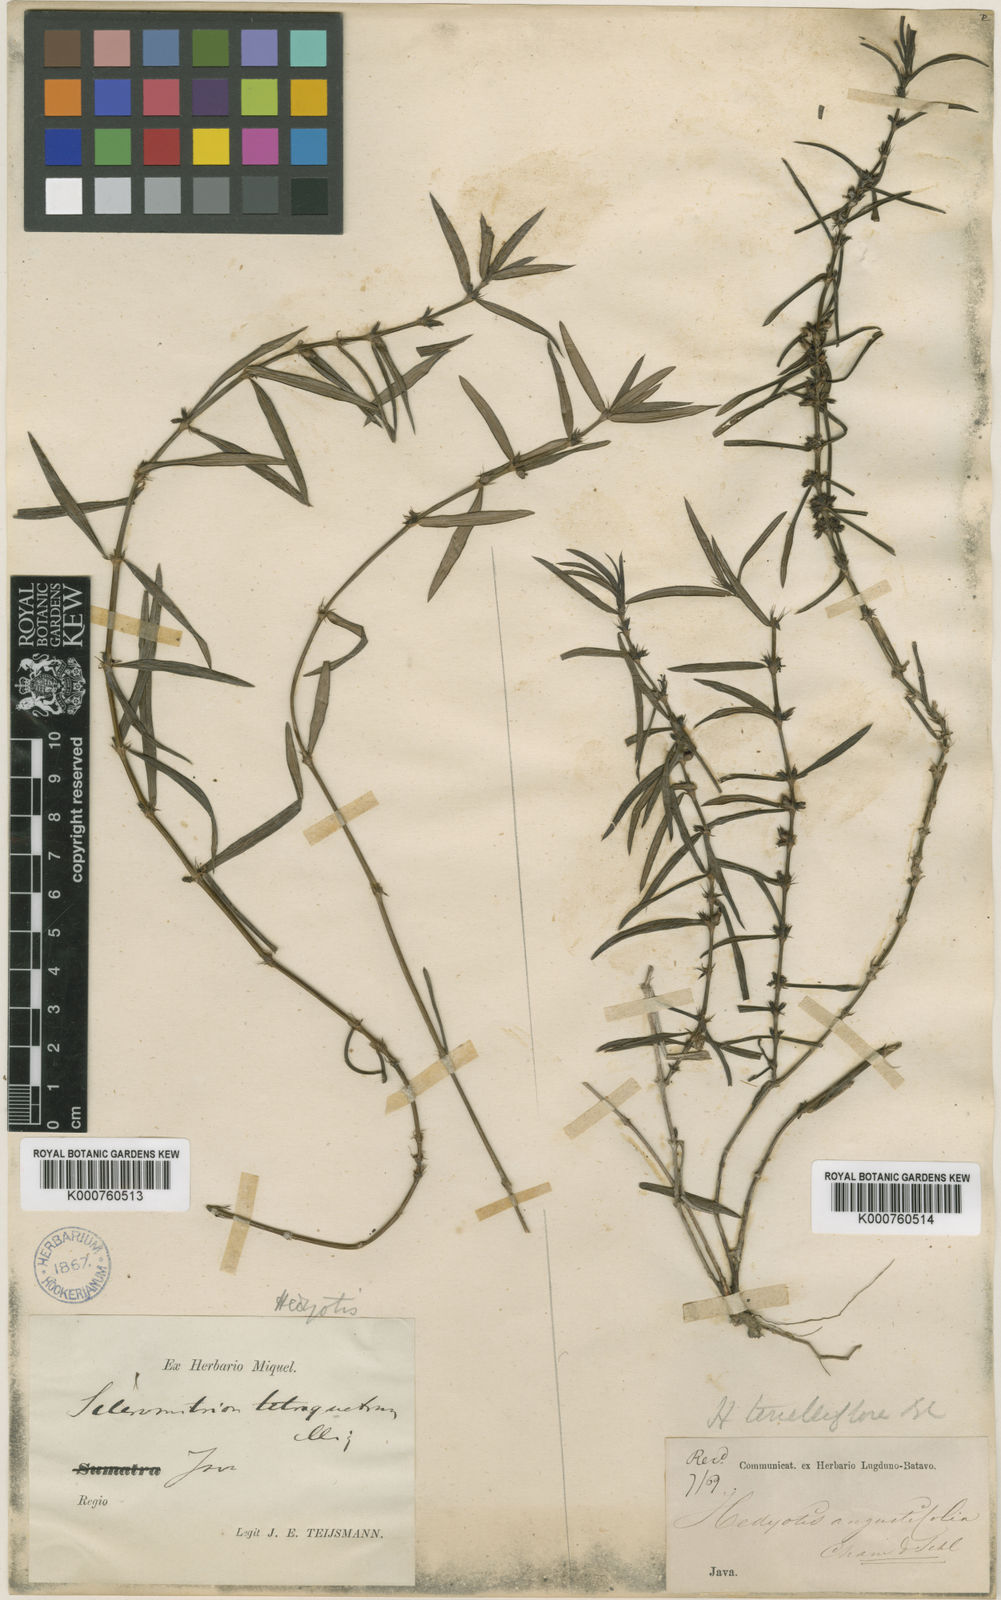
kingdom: Plantae
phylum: Tracheophyta
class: Magnoliopsida
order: Gentianales
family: Rubiaceae
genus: Scleromitrion
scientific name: Scleromitrion tenelliflorum
